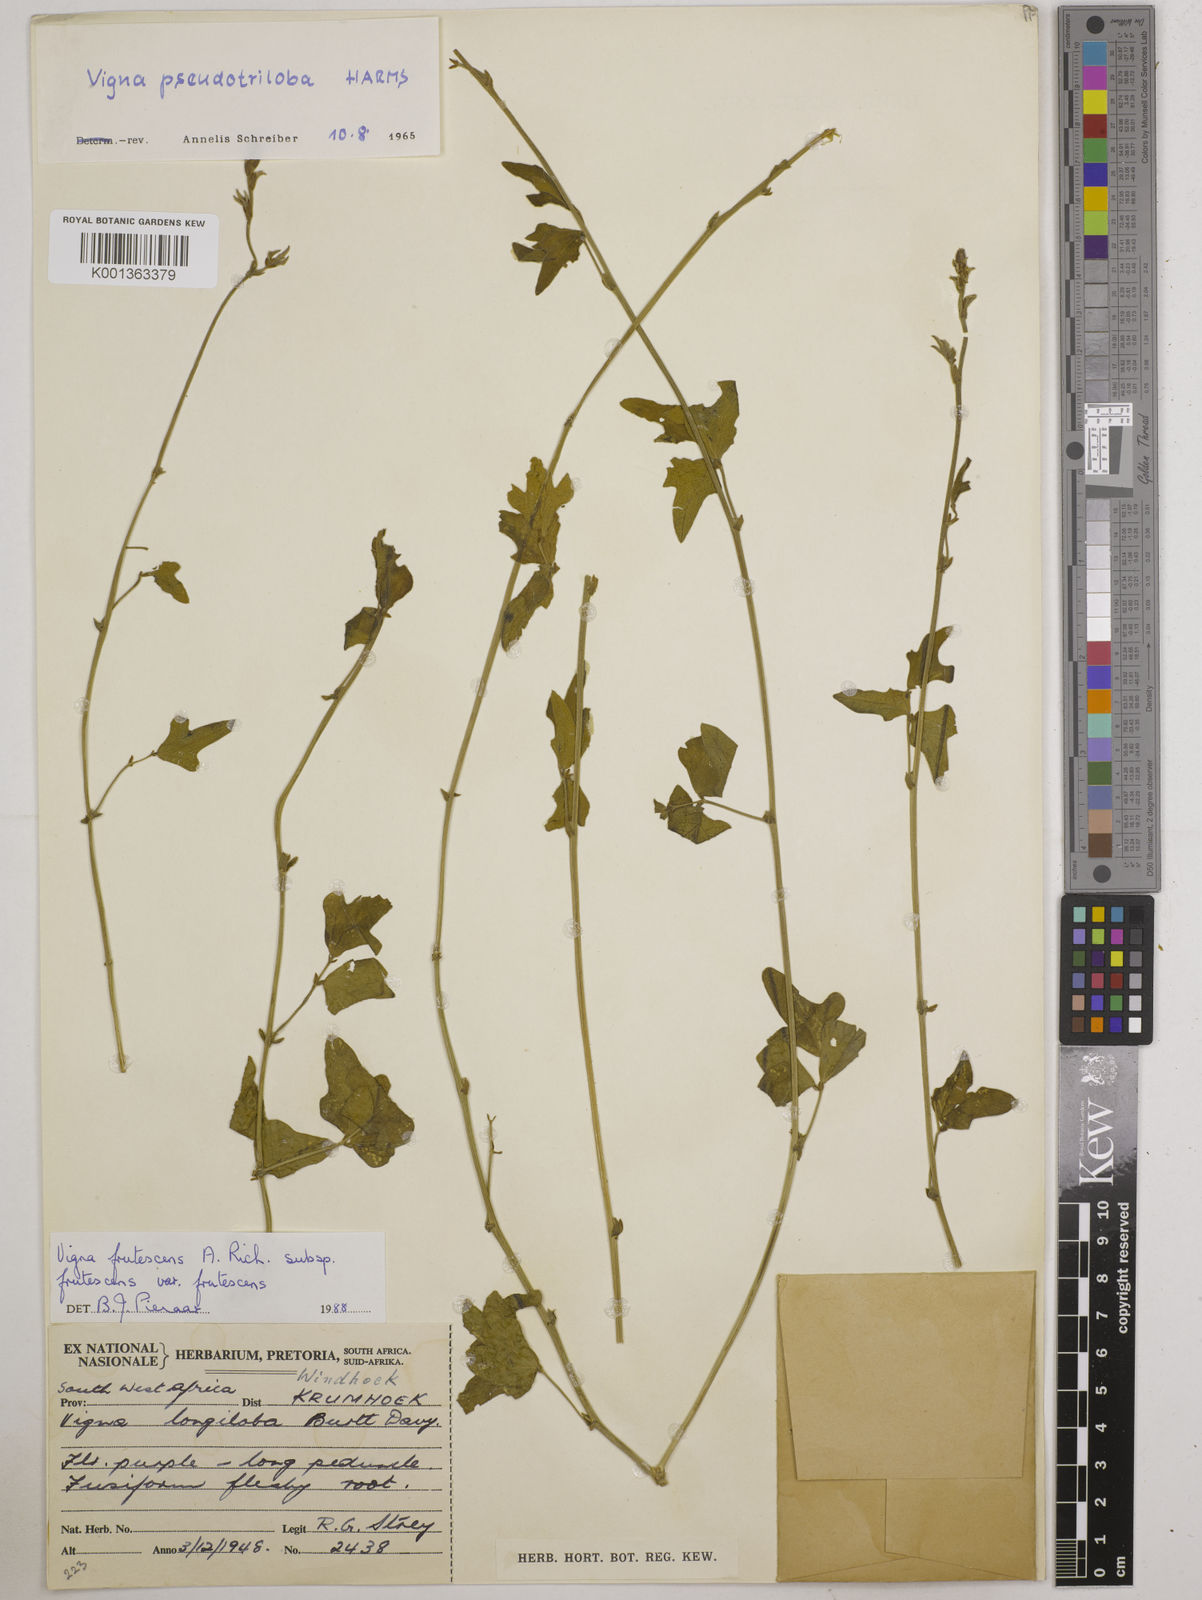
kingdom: Plantae
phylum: Tracheophyta
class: Magnoliopsida
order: Fabales
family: Fabaceae
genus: Vigna
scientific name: Vigna frutescens
